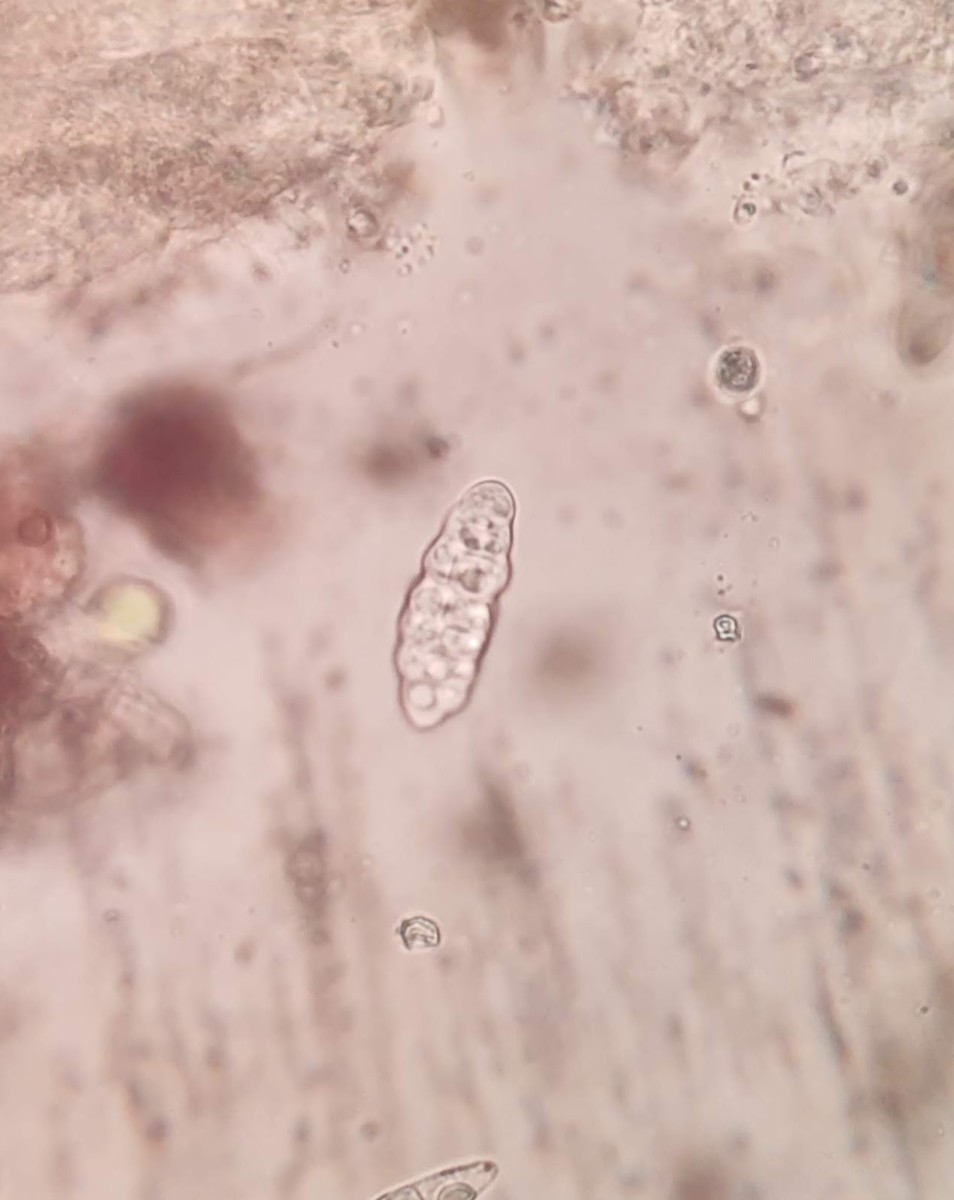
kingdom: Fungi
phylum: Ascomycota
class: Dothideomycetes
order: Hysteriales
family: Hysteriaceae
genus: Hysterobrevium
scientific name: Hysterobrevium smilacis
